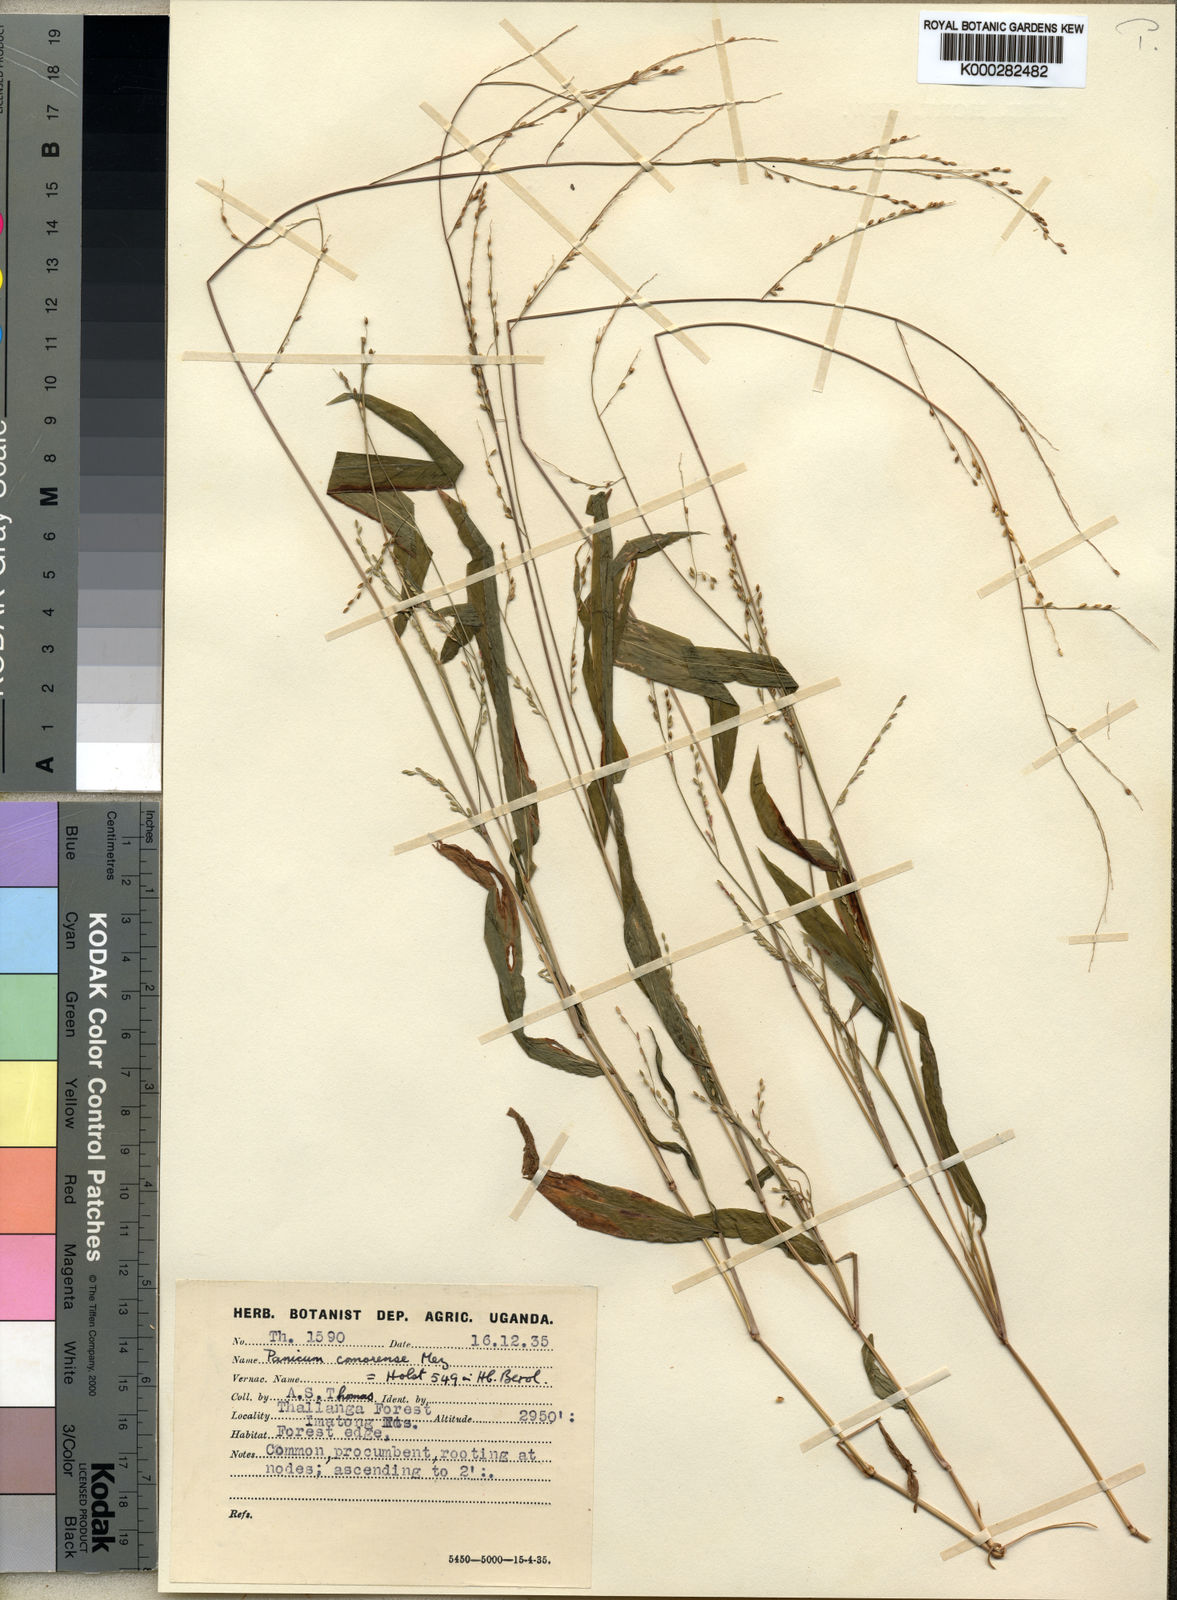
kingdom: Plantae
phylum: Tracheophyta
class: Liliopsida
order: Poales
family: Poaceae
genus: Panicum
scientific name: Panicum comorense
